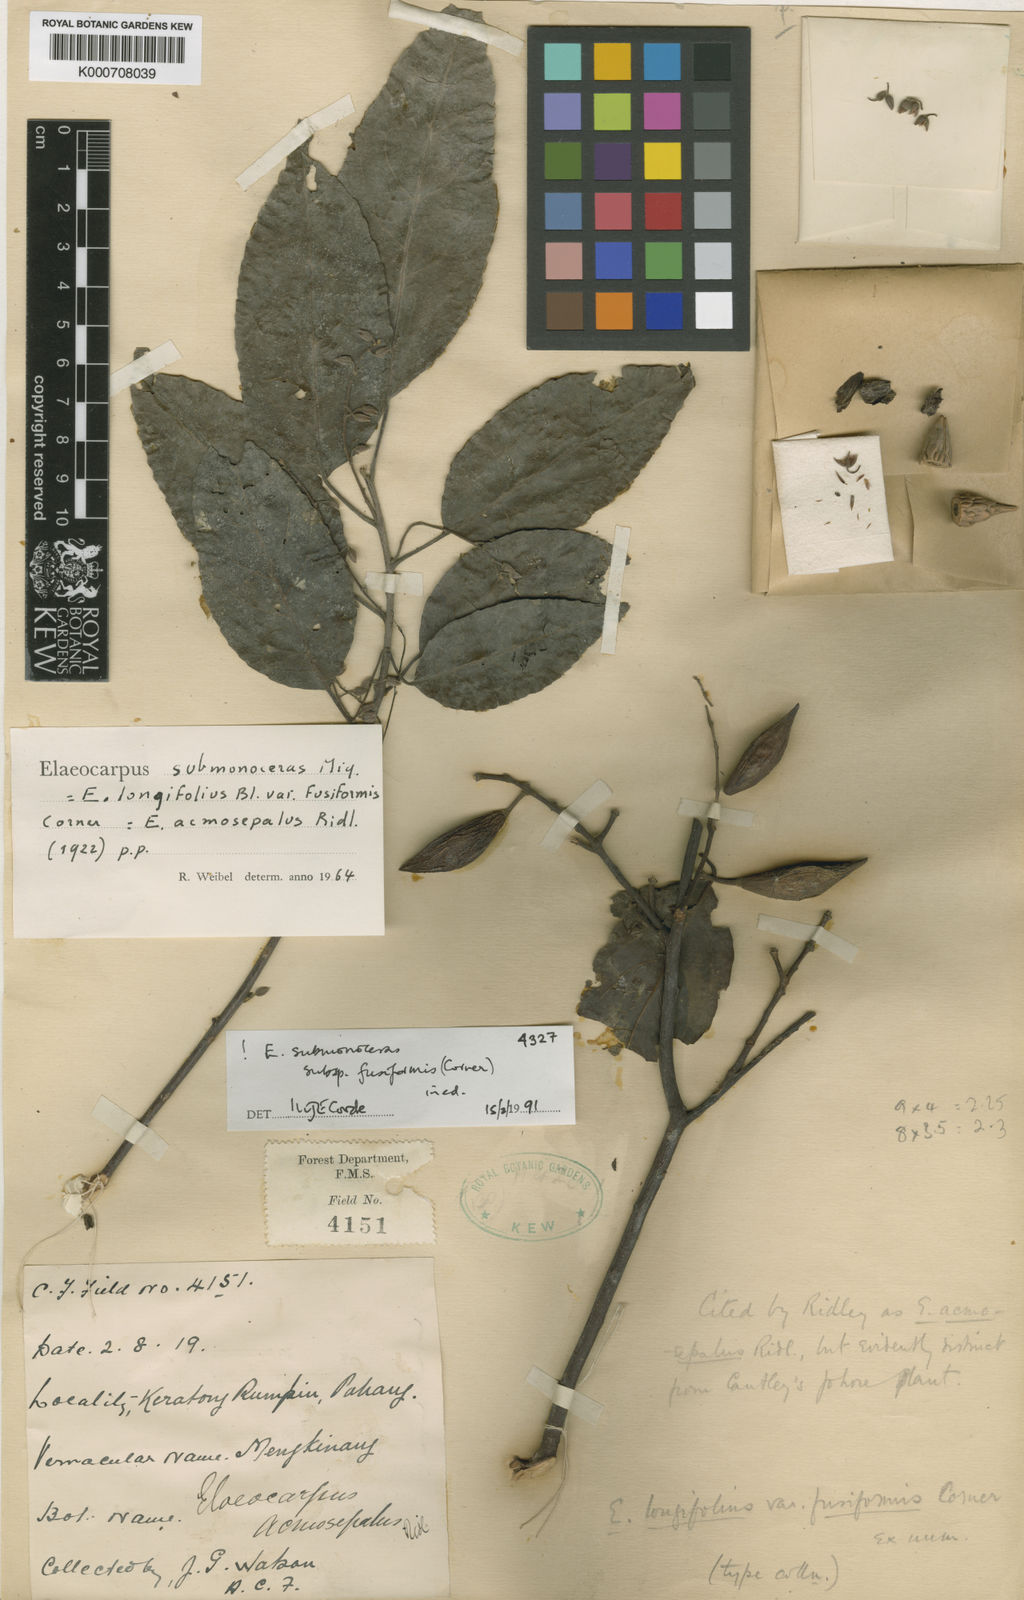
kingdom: Plantae
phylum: Tracheophyta
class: Magnoliopsida
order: Oxalidales
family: Elaeocarpaceae
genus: Elaeocarpus
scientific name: Elaeocarpus submonoceras
